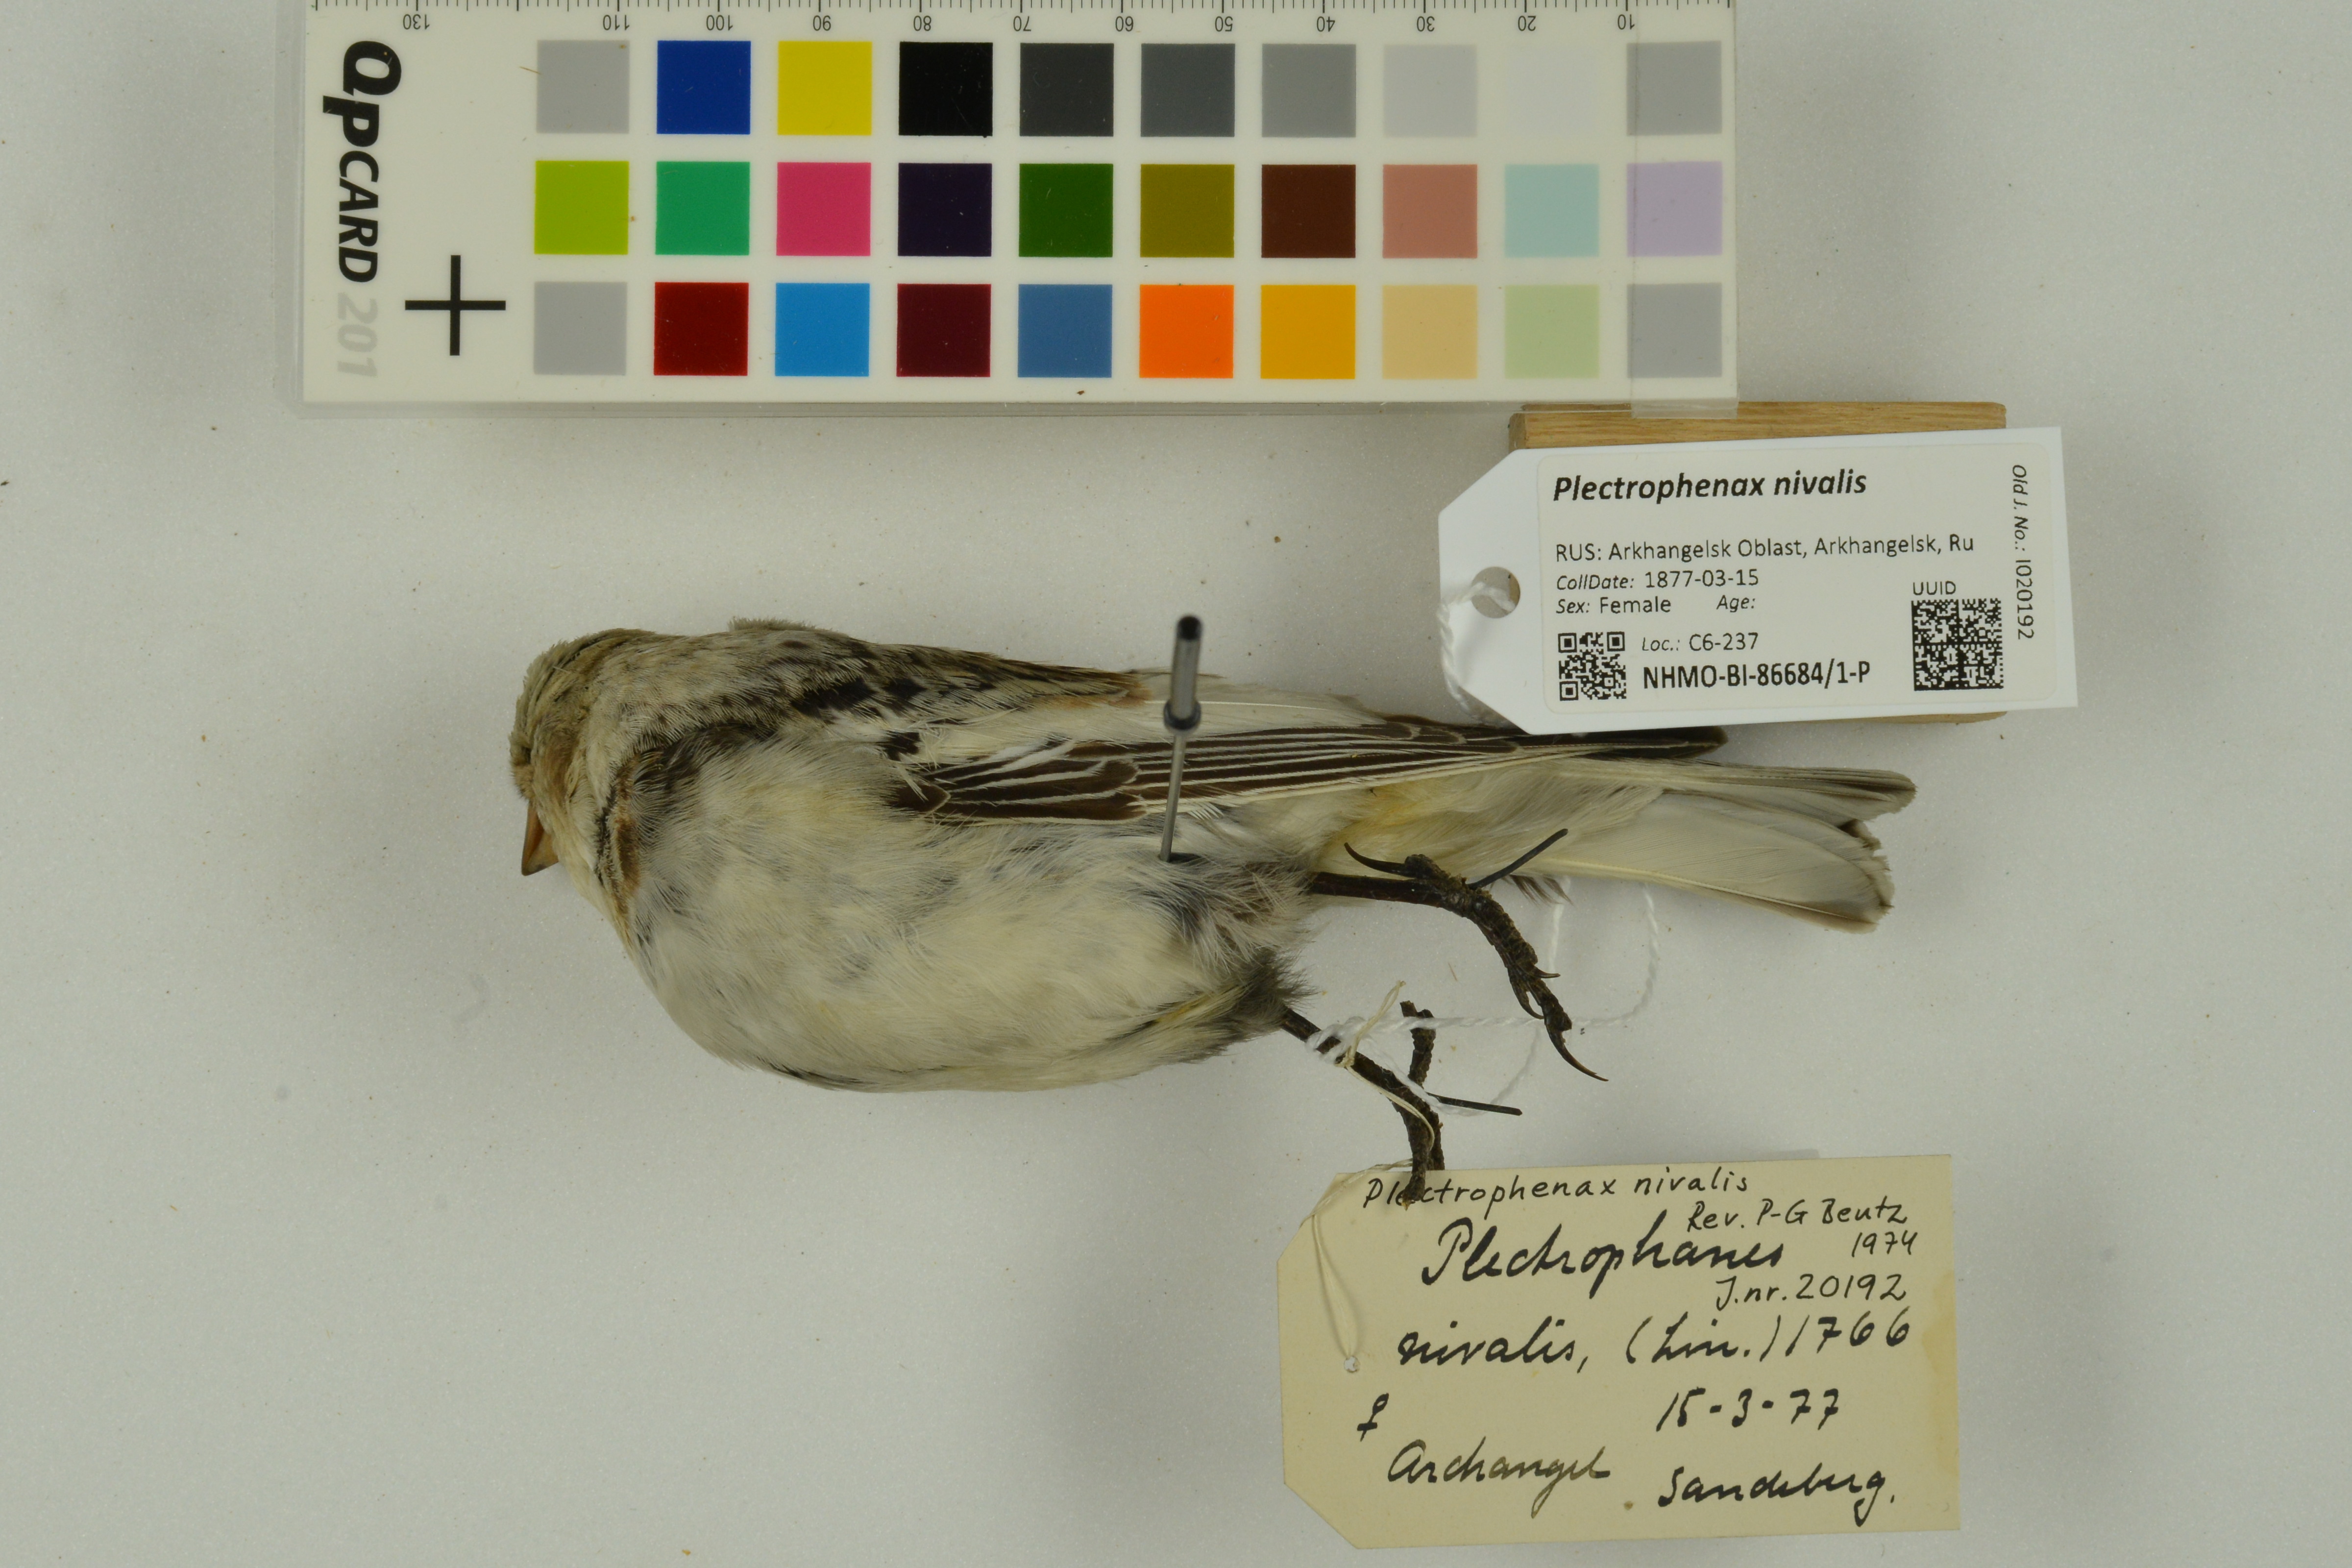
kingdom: Animalia
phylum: Chordata
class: Aves
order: Passeriformes
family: Calcariidae
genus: Plectrophenax
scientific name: Plectrophenax nivalis
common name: Snow bunting
